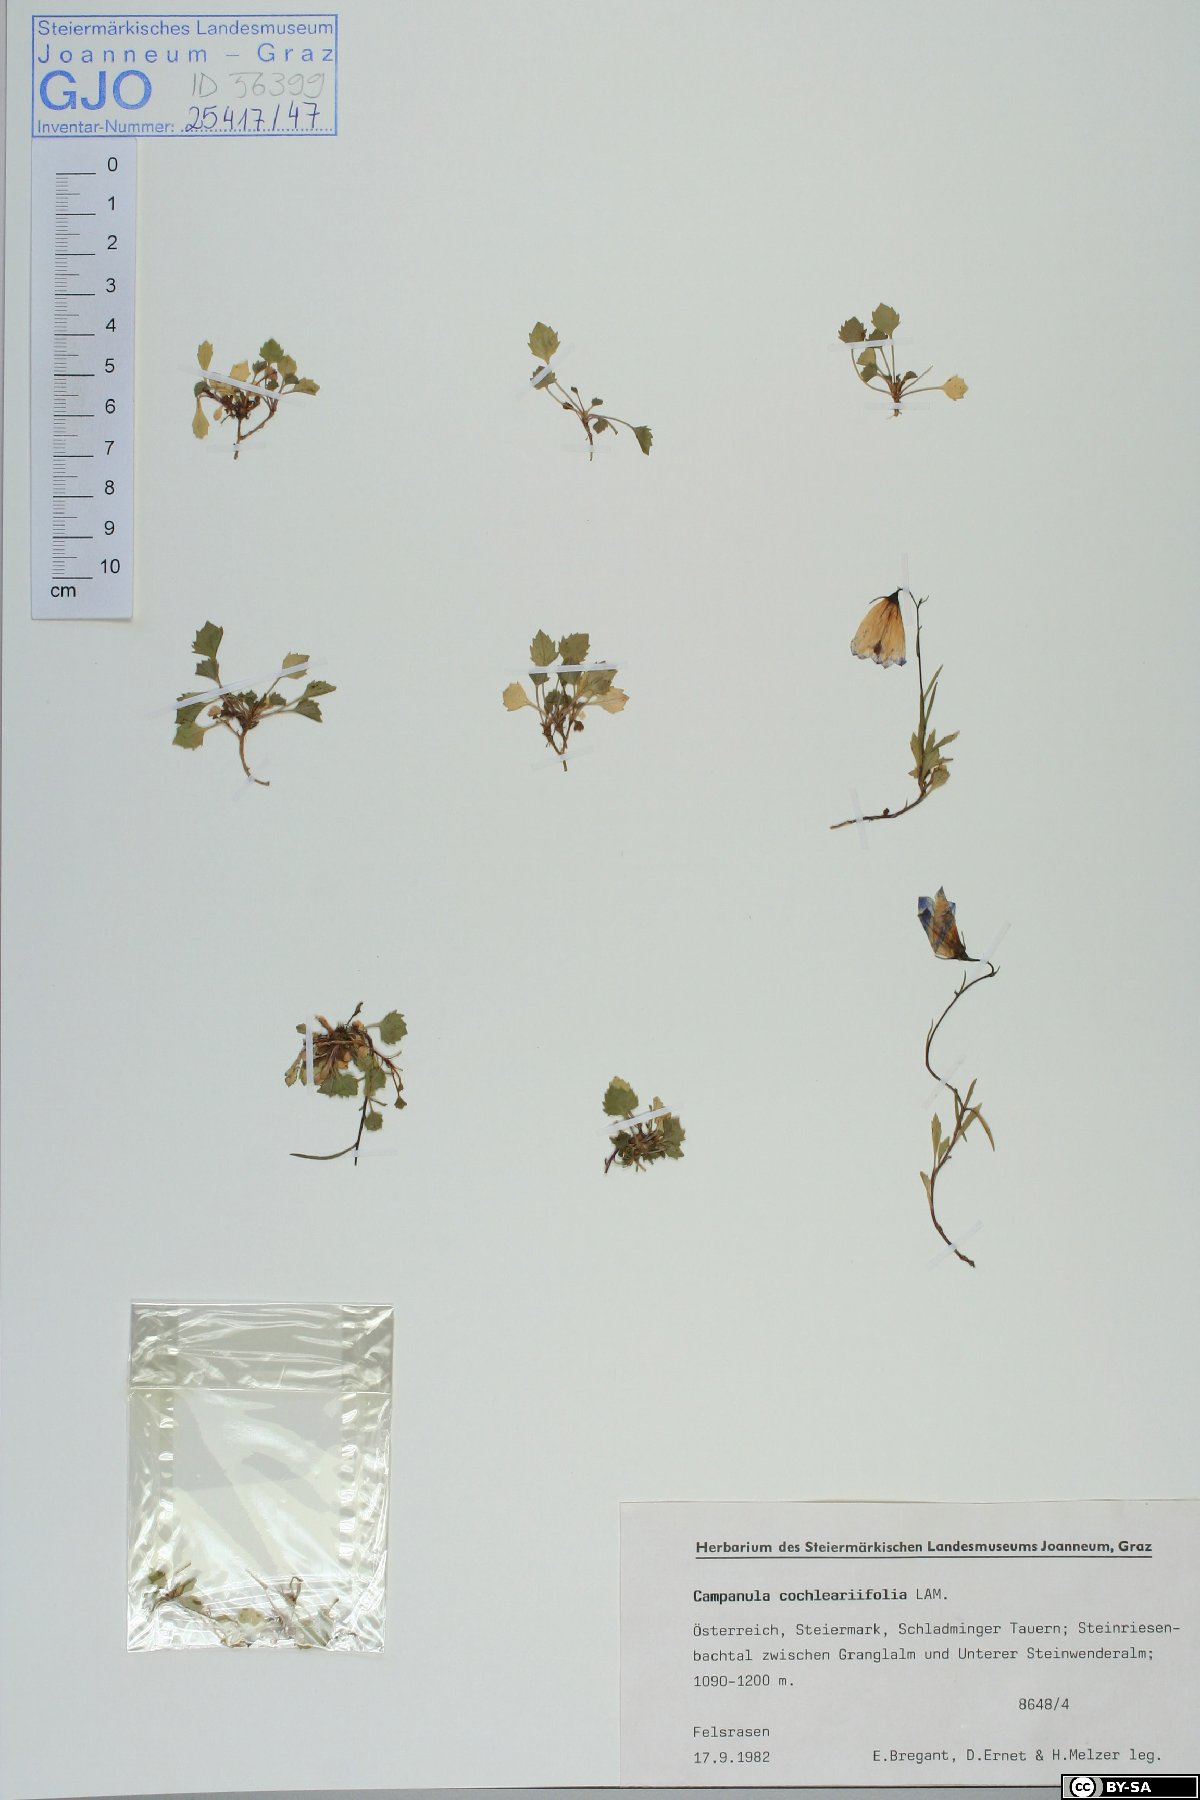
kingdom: Plantae
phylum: Tracheophyta
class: Magnoliopsida
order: Asterales
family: Campanulaceae
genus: Campanula
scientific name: Campanula cochleariifolia
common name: Fairies'-thimbles
